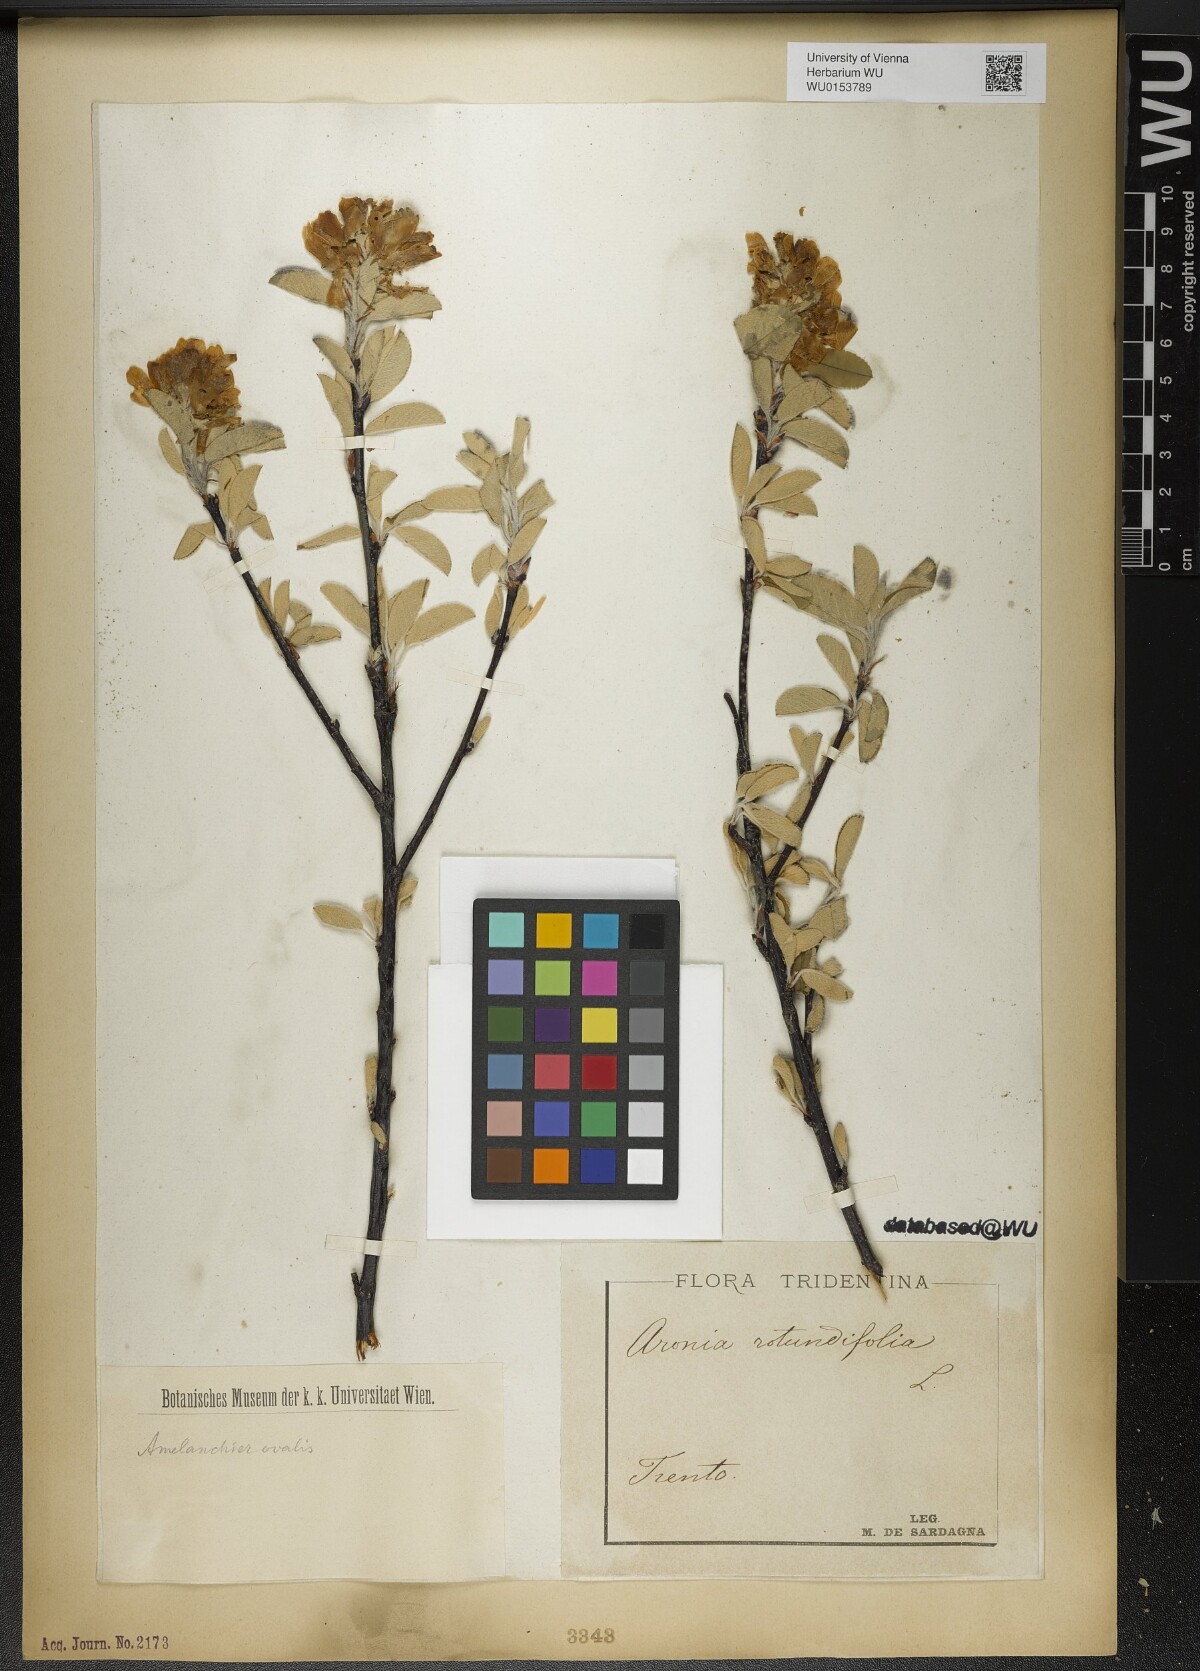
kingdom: Plantae
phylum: Tracheophyta
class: Magnoliopsida
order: Rosales
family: Rosaceae
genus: Amelanchier
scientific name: Amelanchier ovalis
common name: Serviceberry
